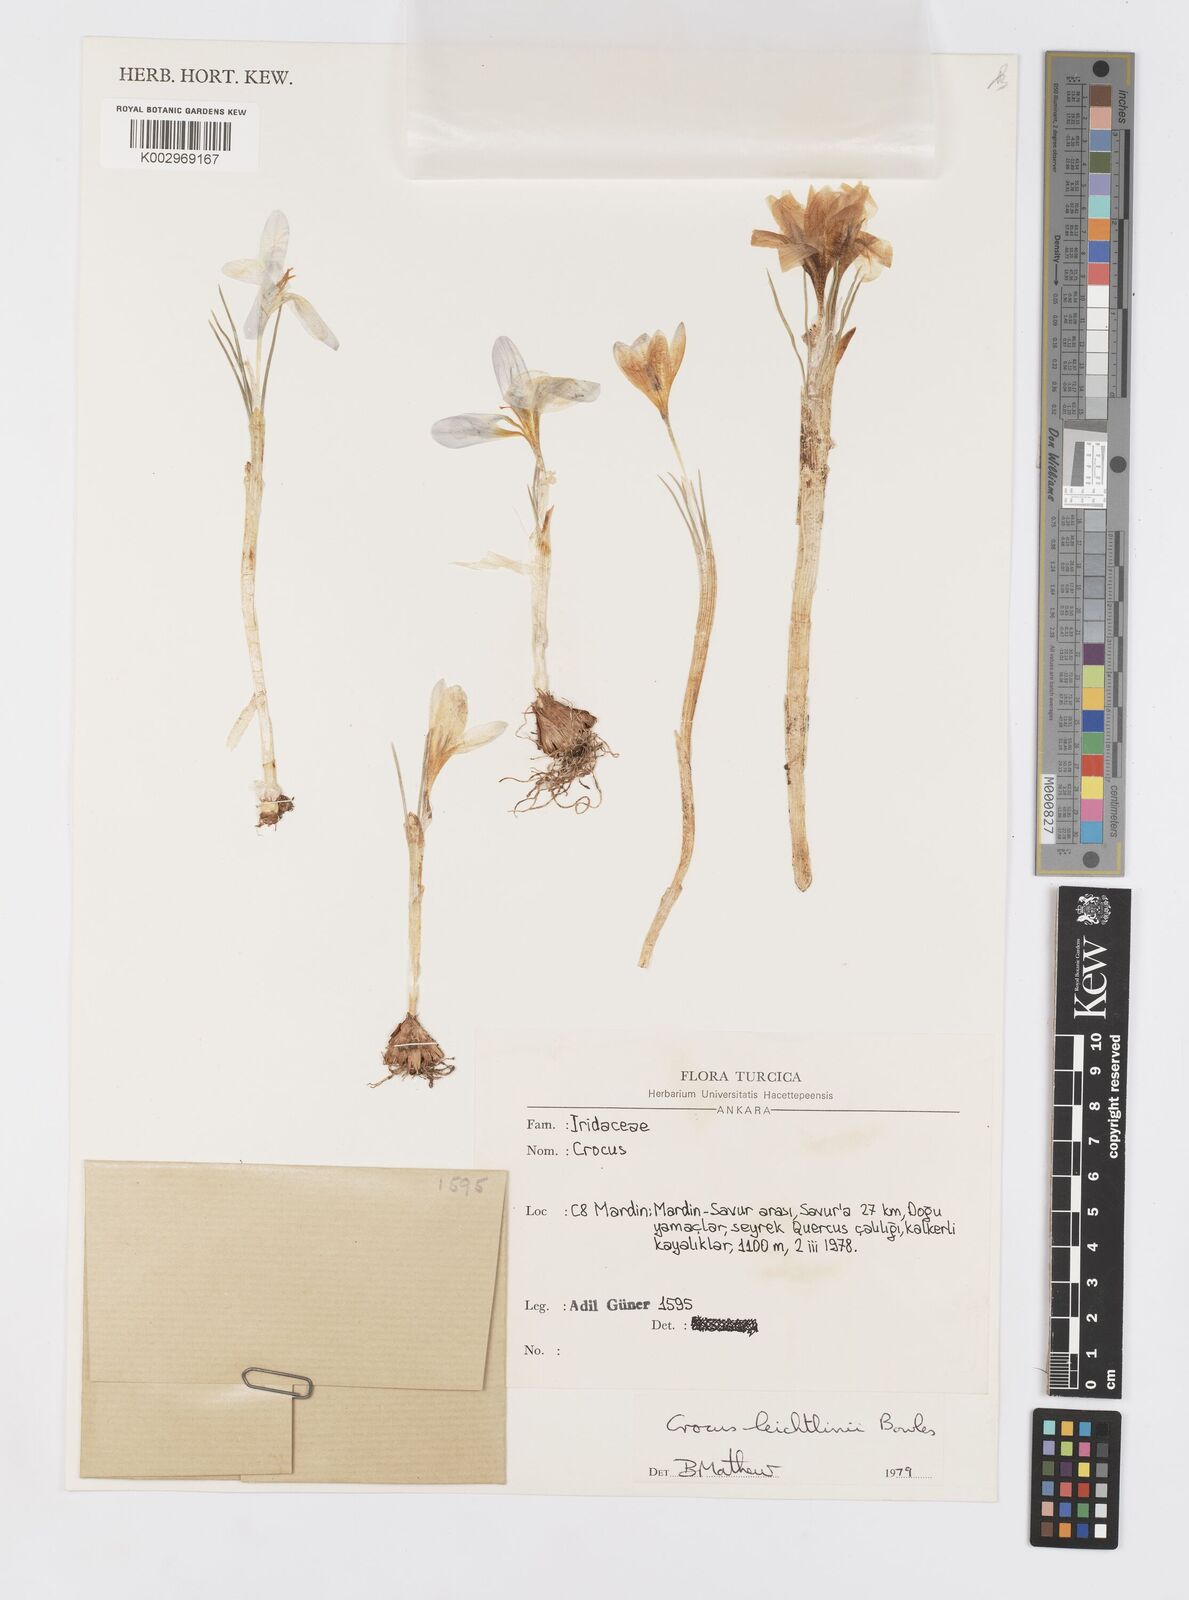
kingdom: Plantae
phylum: Tracheophyta
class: Liliopsida
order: Asparagales
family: Iridaceae
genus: Crocus
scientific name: Crocus leichtlinii
